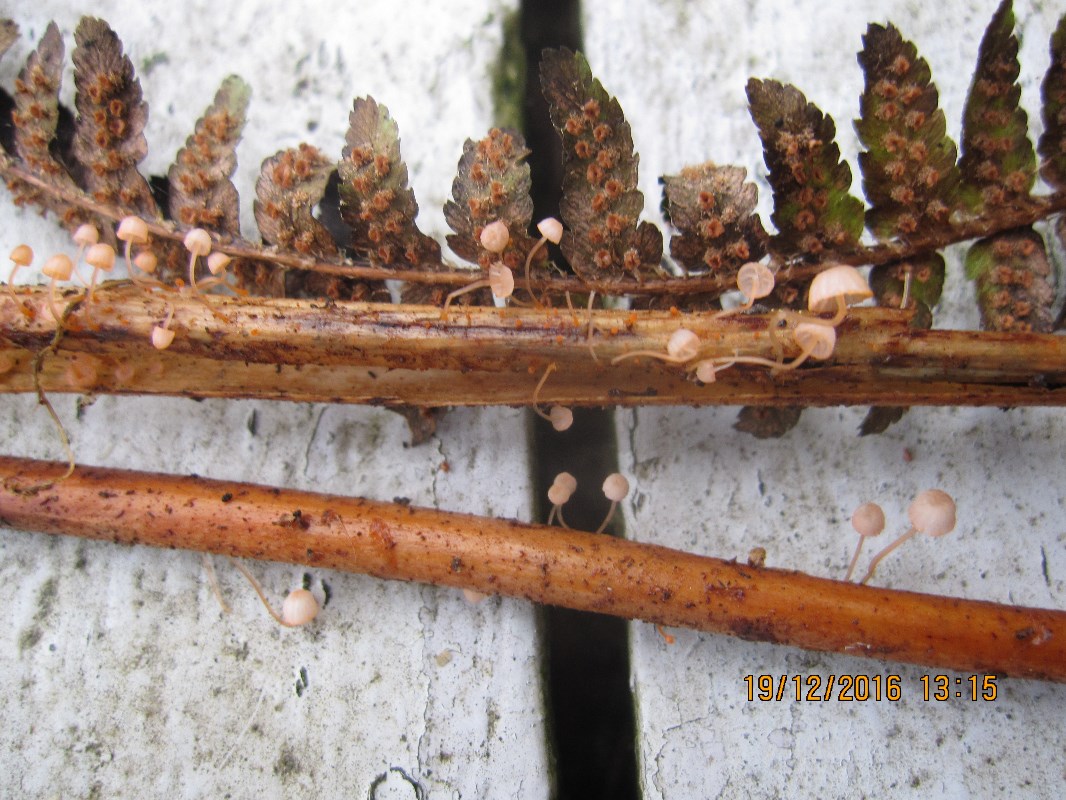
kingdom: Fungi
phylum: Basidiomycota
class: Agaricomycetes
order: Agaricales
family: Mycenaceae
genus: Mycena
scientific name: Mycena pterigena
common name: bregne-huesvamp
